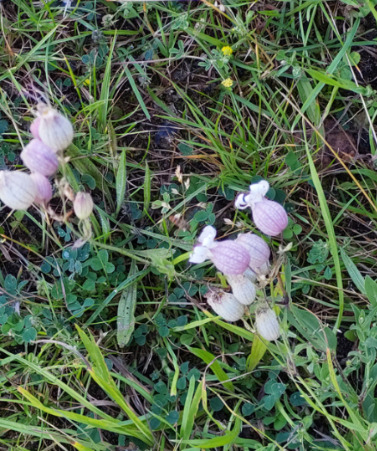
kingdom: Plantae
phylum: Tracheophyta
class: Magnoliopsida
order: Caryophyllales
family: Caryophyllaceae
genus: Silene
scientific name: Silene vulgaris
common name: Blæresmælde
